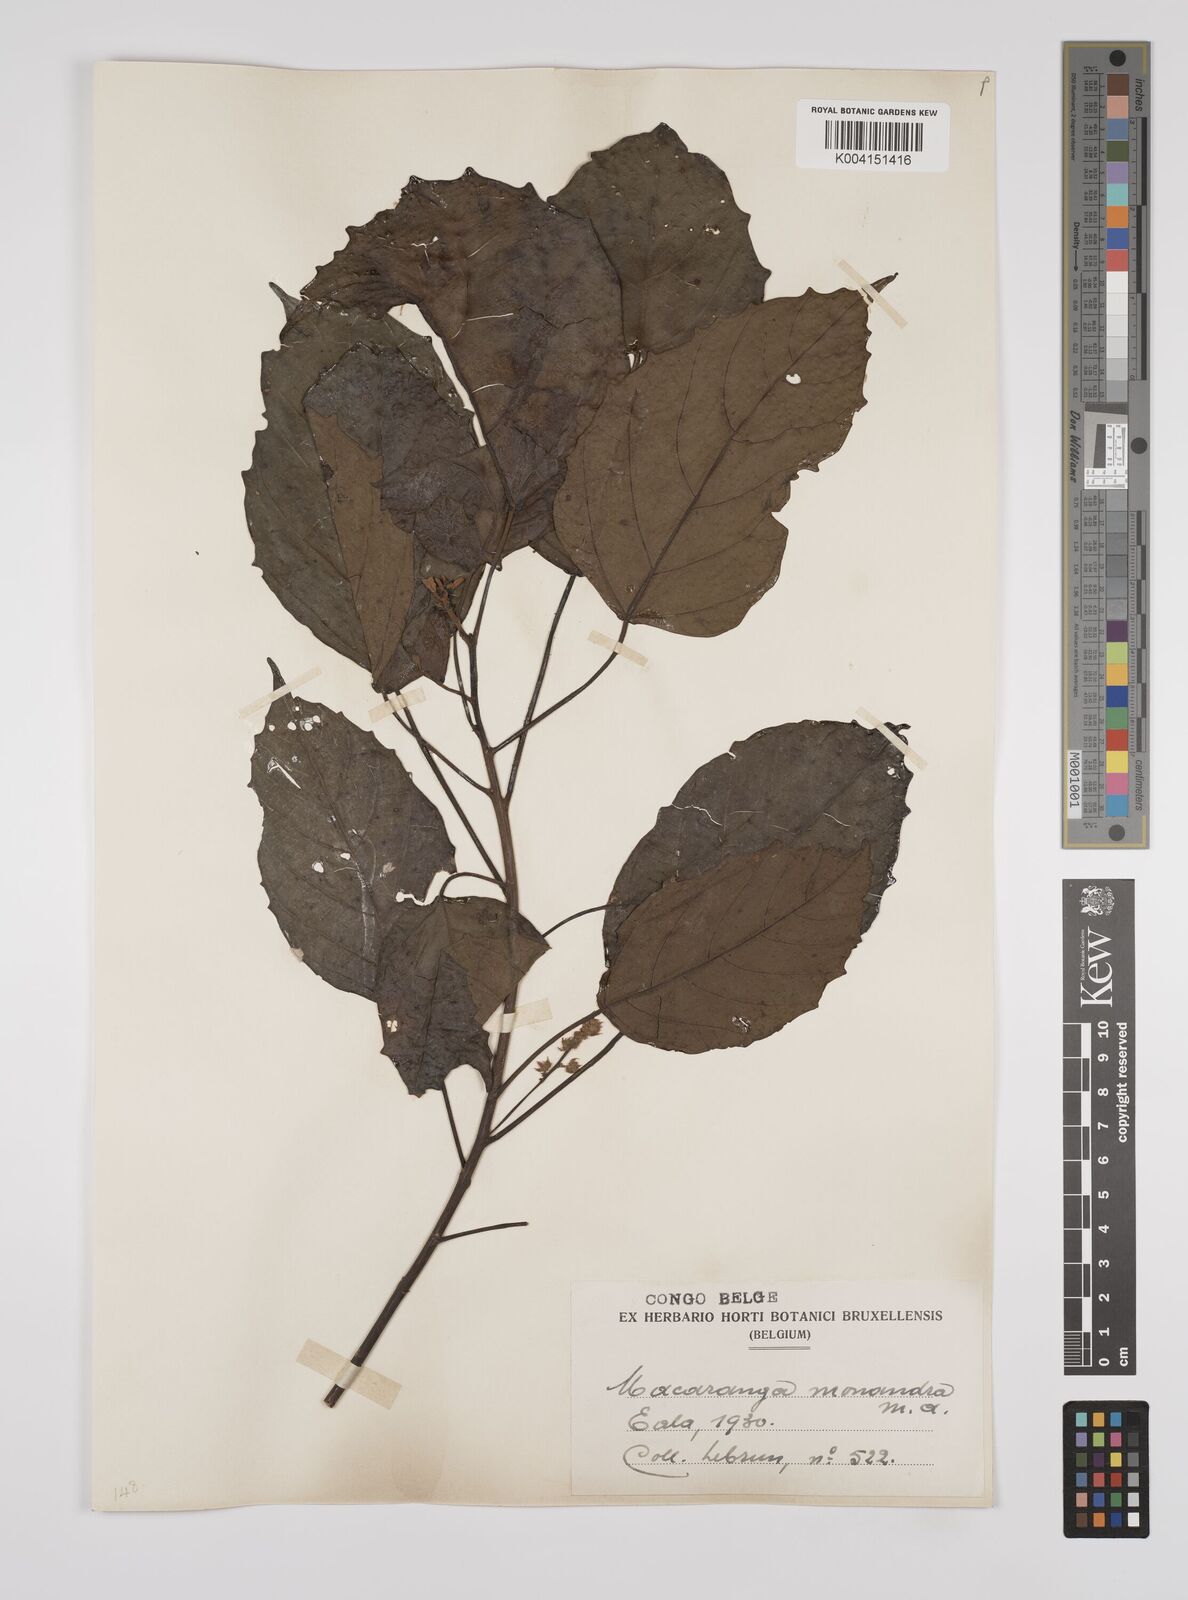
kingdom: Plantae
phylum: Tracheophyta
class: Magnoliopsida
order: Malpighiales
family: Euphorbiaceae
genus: Macaranga
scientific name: Macaranga monandra
